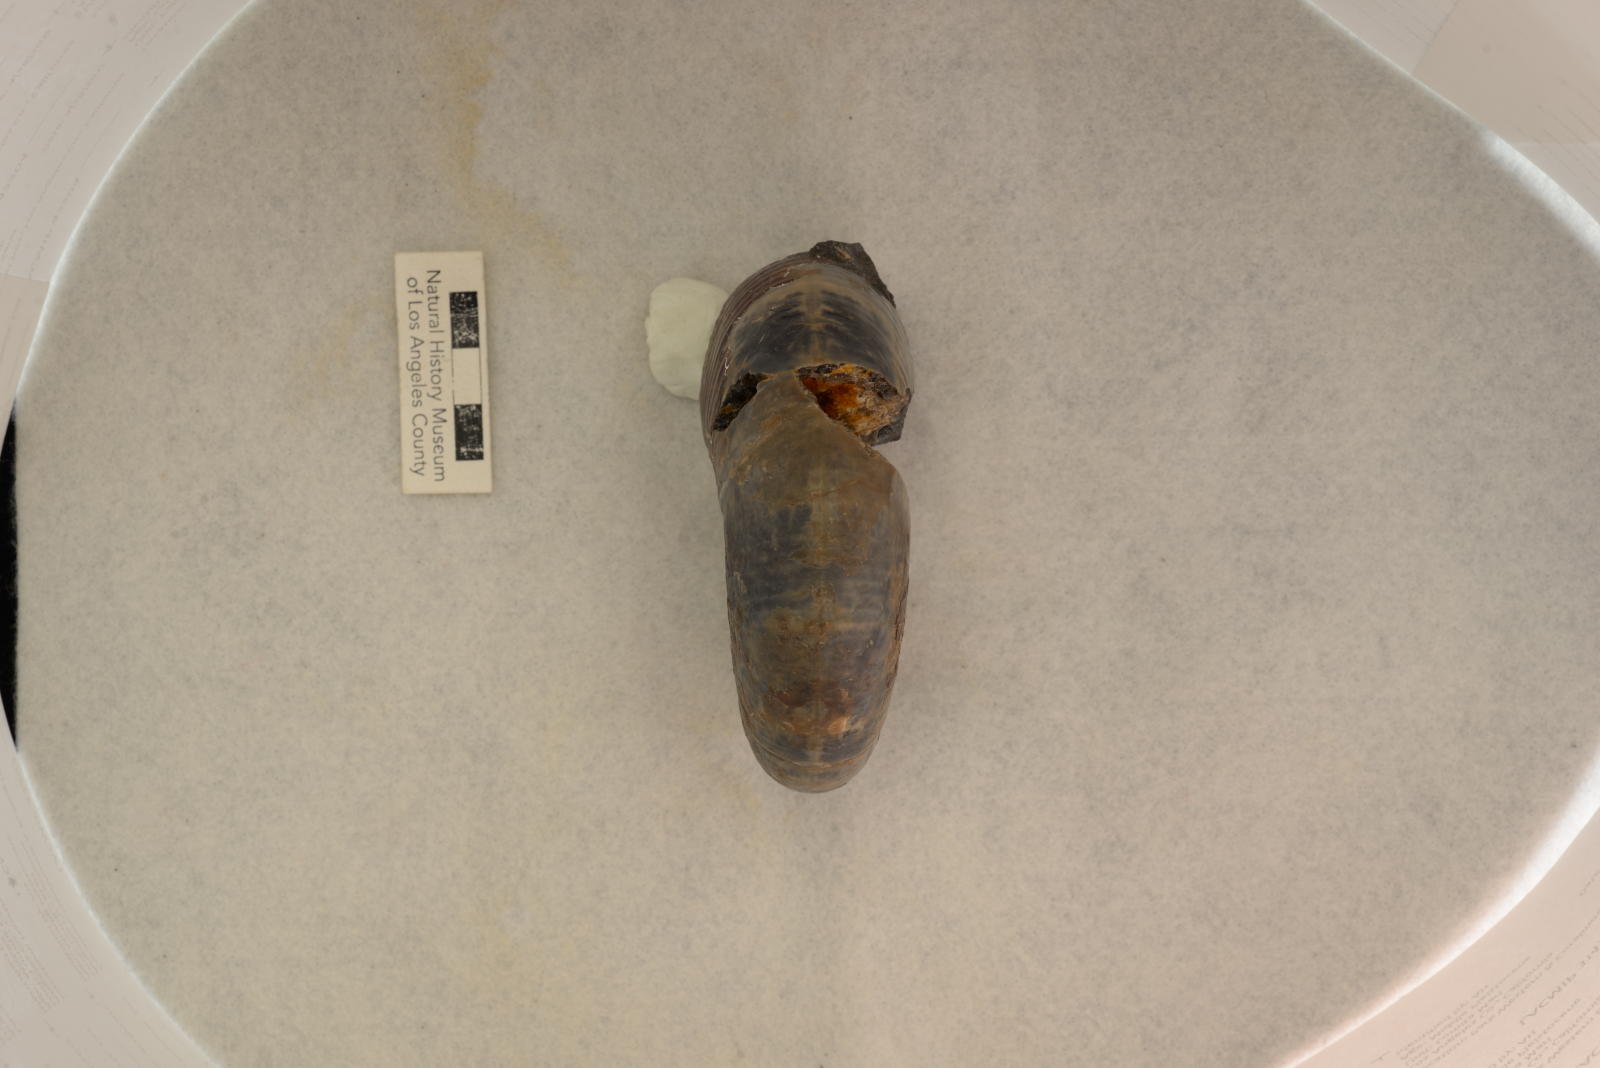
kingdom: Animalia
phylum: Mollusca
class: Cephalopoda
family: Desmoceratidae
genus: Puzosia
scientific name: Puzosia sullivanae
